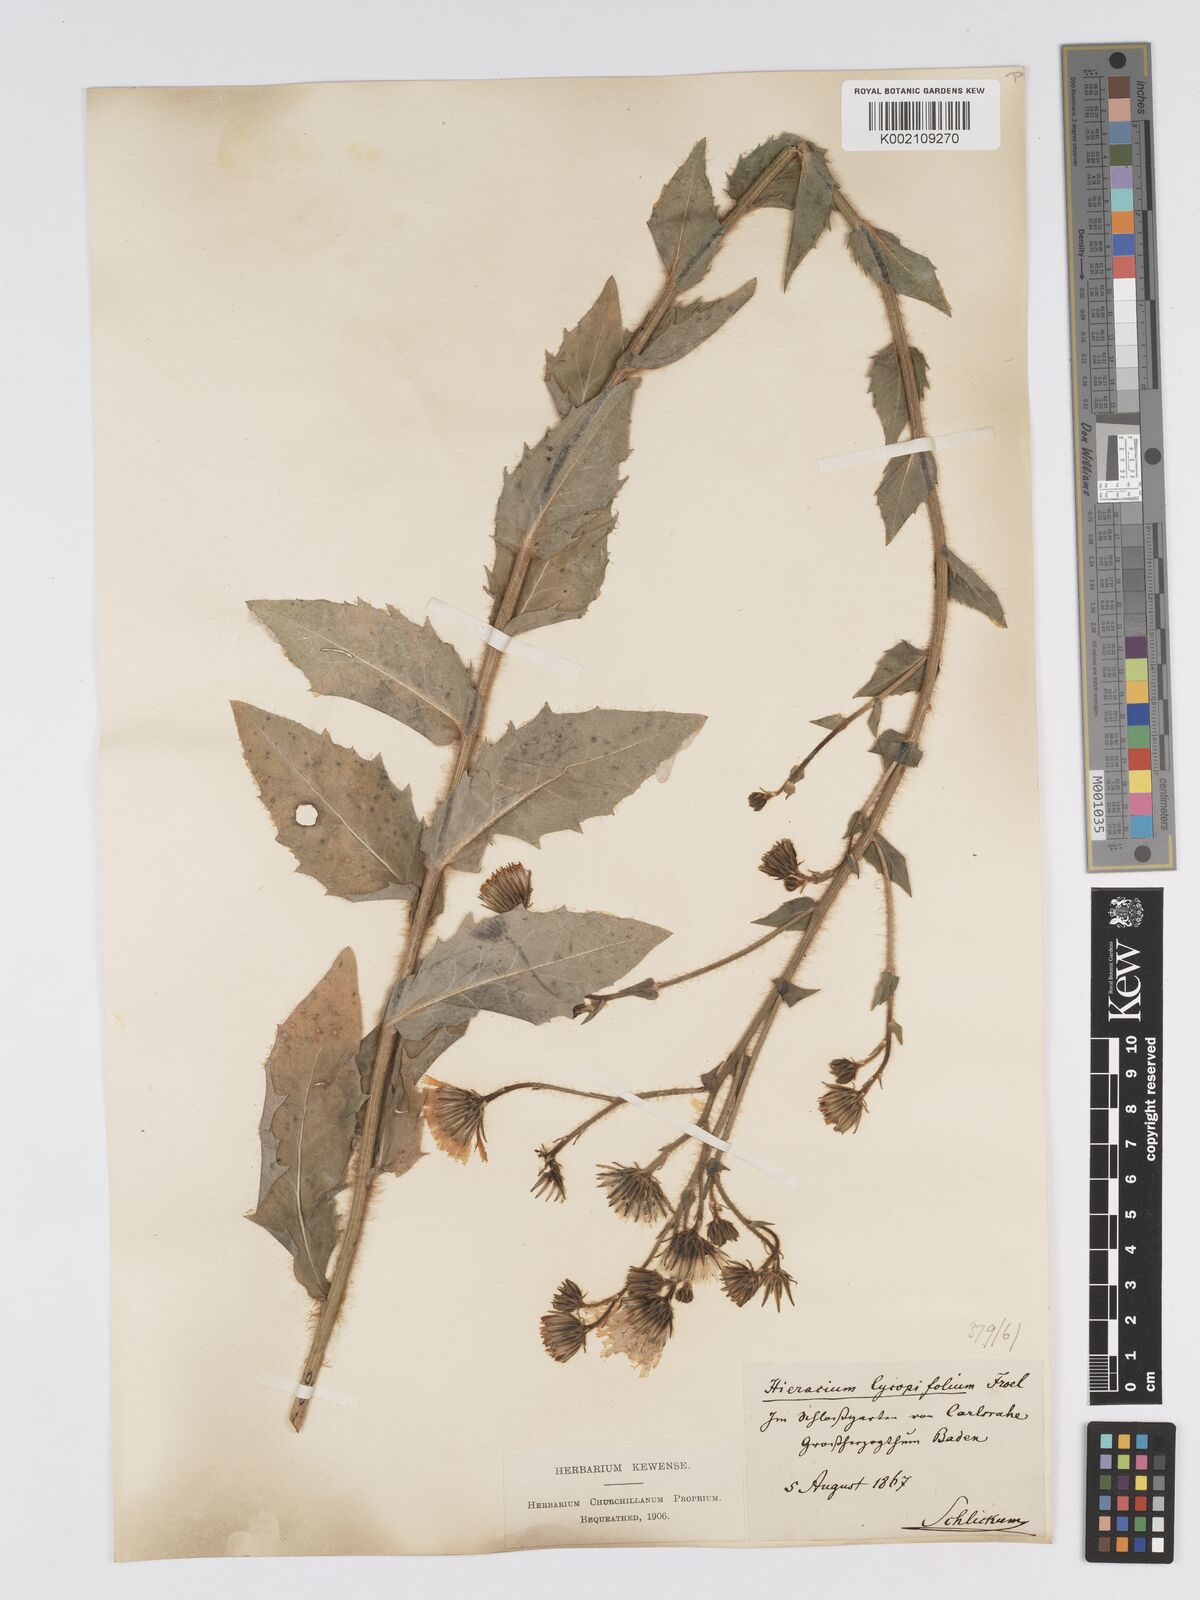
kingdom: Plantae
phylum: Tracheophyta
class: Magnoliopsida
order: Asterales
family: Asteraceae
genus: Hieracium
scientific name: Hieracium lycopifolium
